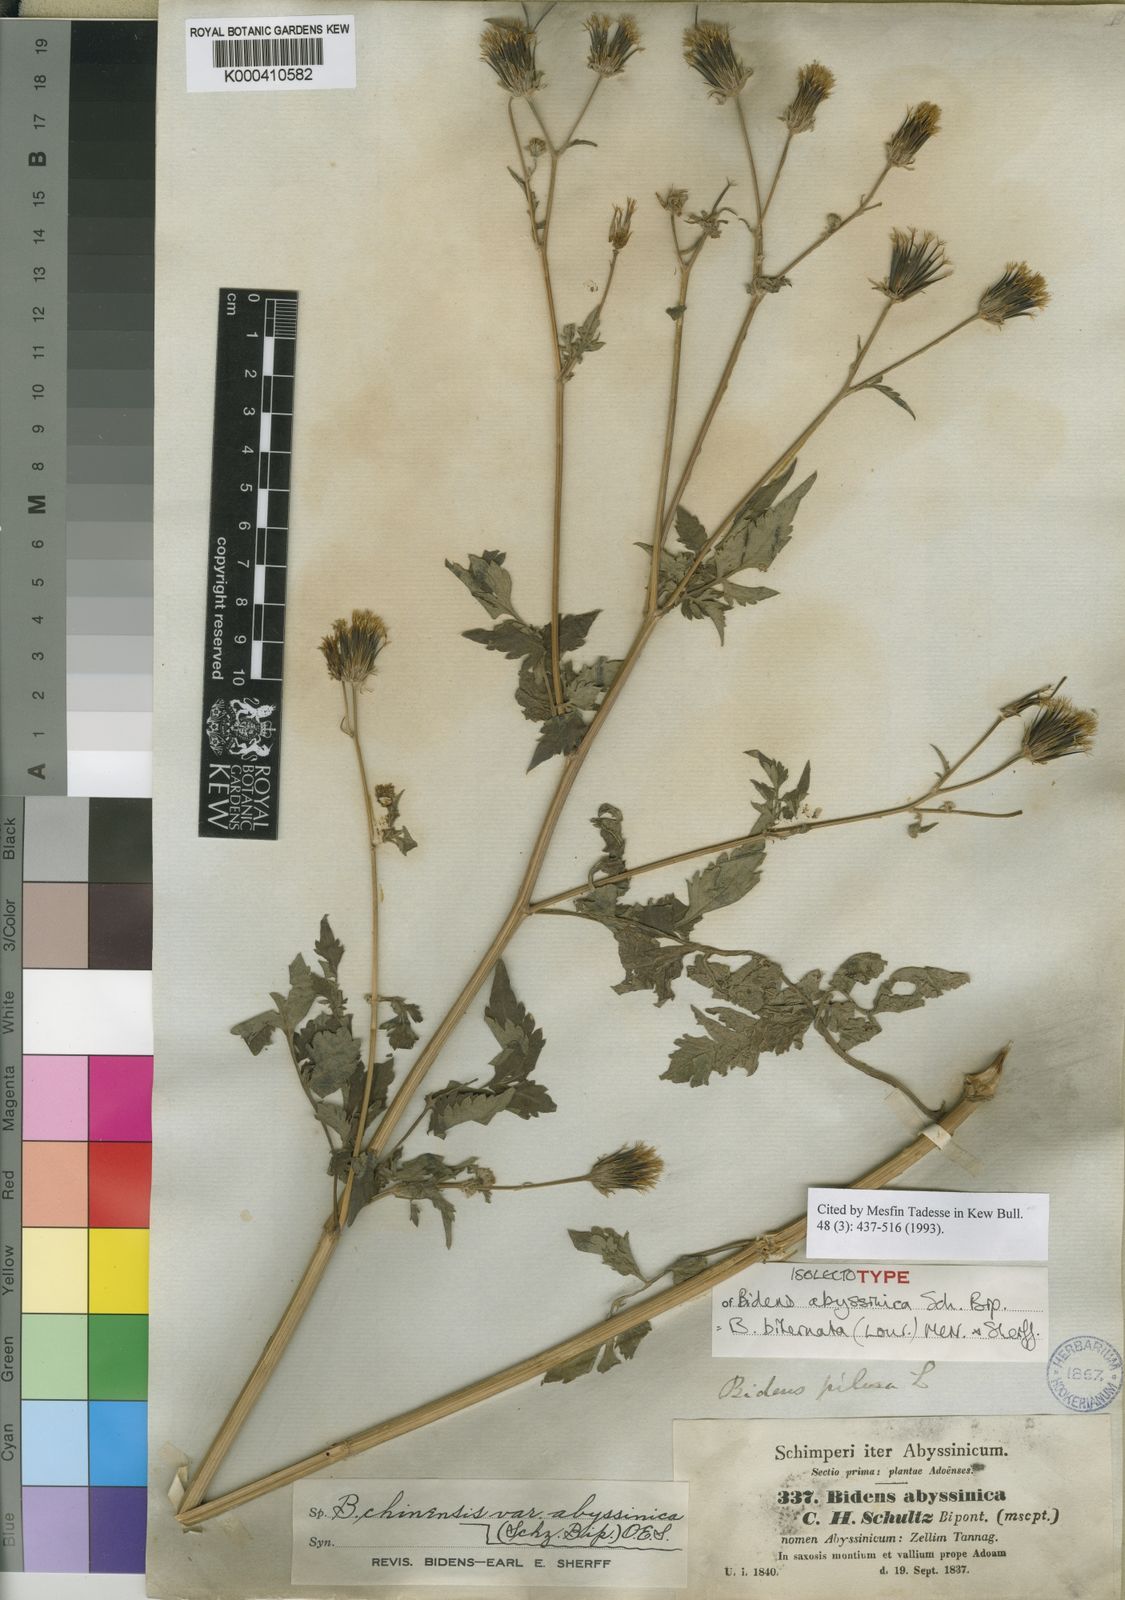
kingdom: Plantae
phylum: Tracheophyta
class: Magnoliopsida
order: Asterales
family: Asteraceae
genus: Bidens
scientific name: Bidens biternata
